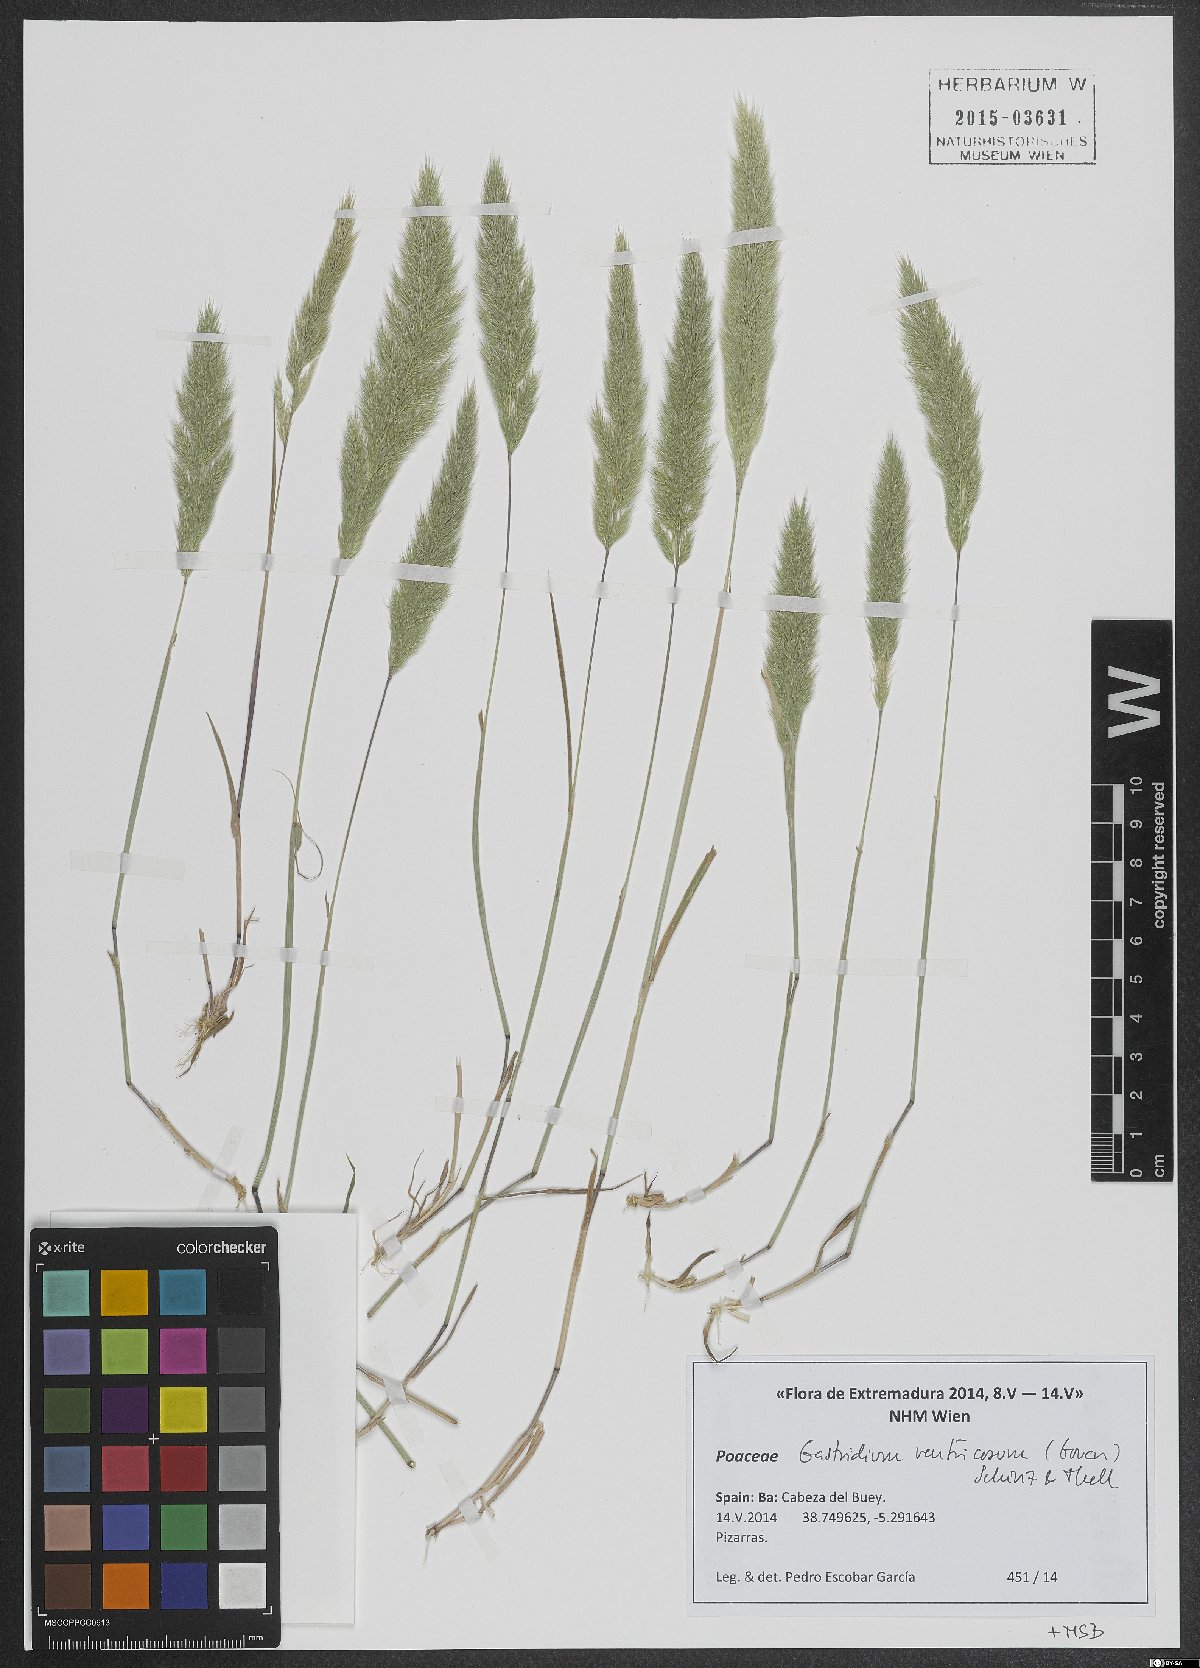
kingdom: Plantae
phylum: Tracheophyta
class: Liliopsida
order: Poales
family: Poaceae
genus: Gastridium
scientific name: Gastridium ventricosum
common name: Nit-grass
